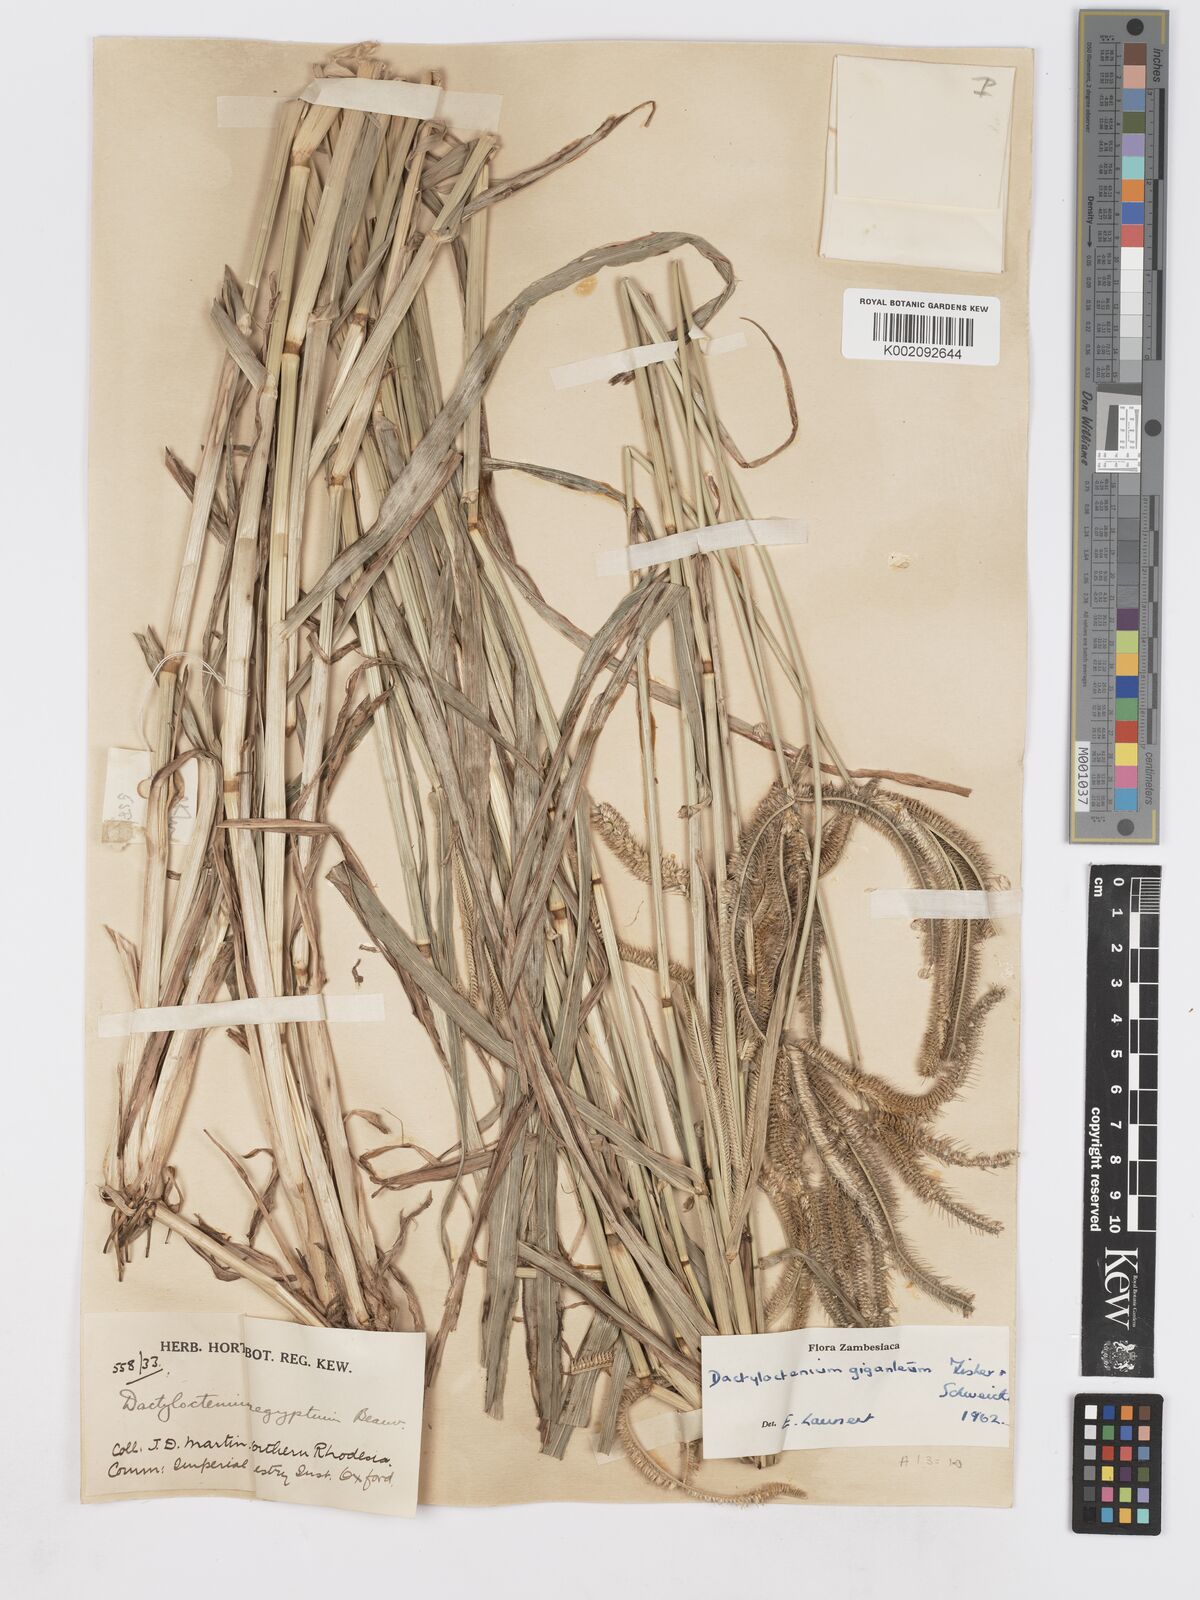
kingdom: Plantae
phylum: Tracheophyta
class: Liliopsida
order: Poales
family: Poaceae
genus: Dactyloctenium
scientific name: Dactyloctenium giganteum
